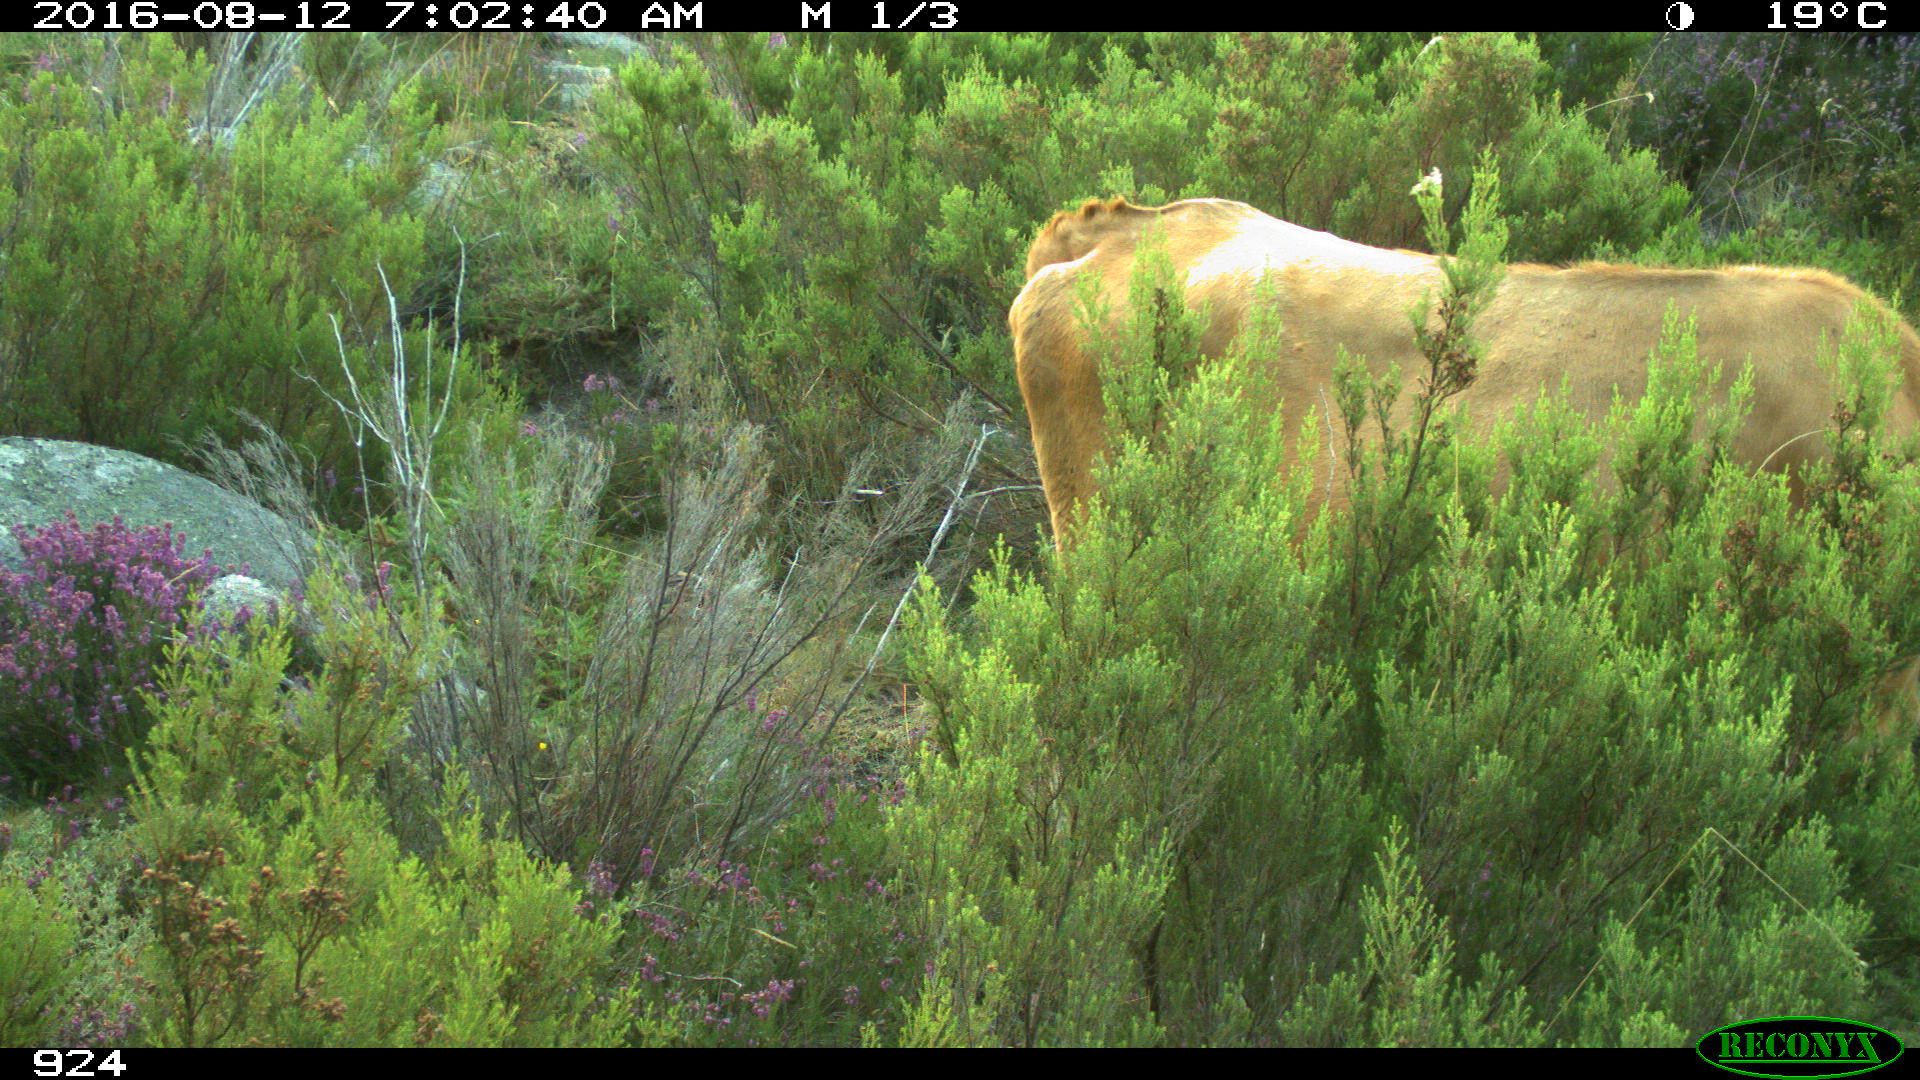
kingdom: Animalia
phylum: Chordata
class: Mammalia
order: Artiodactyla
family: Bovidae
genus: Bos
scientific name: Bos taurus
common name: Domesticated cattle
